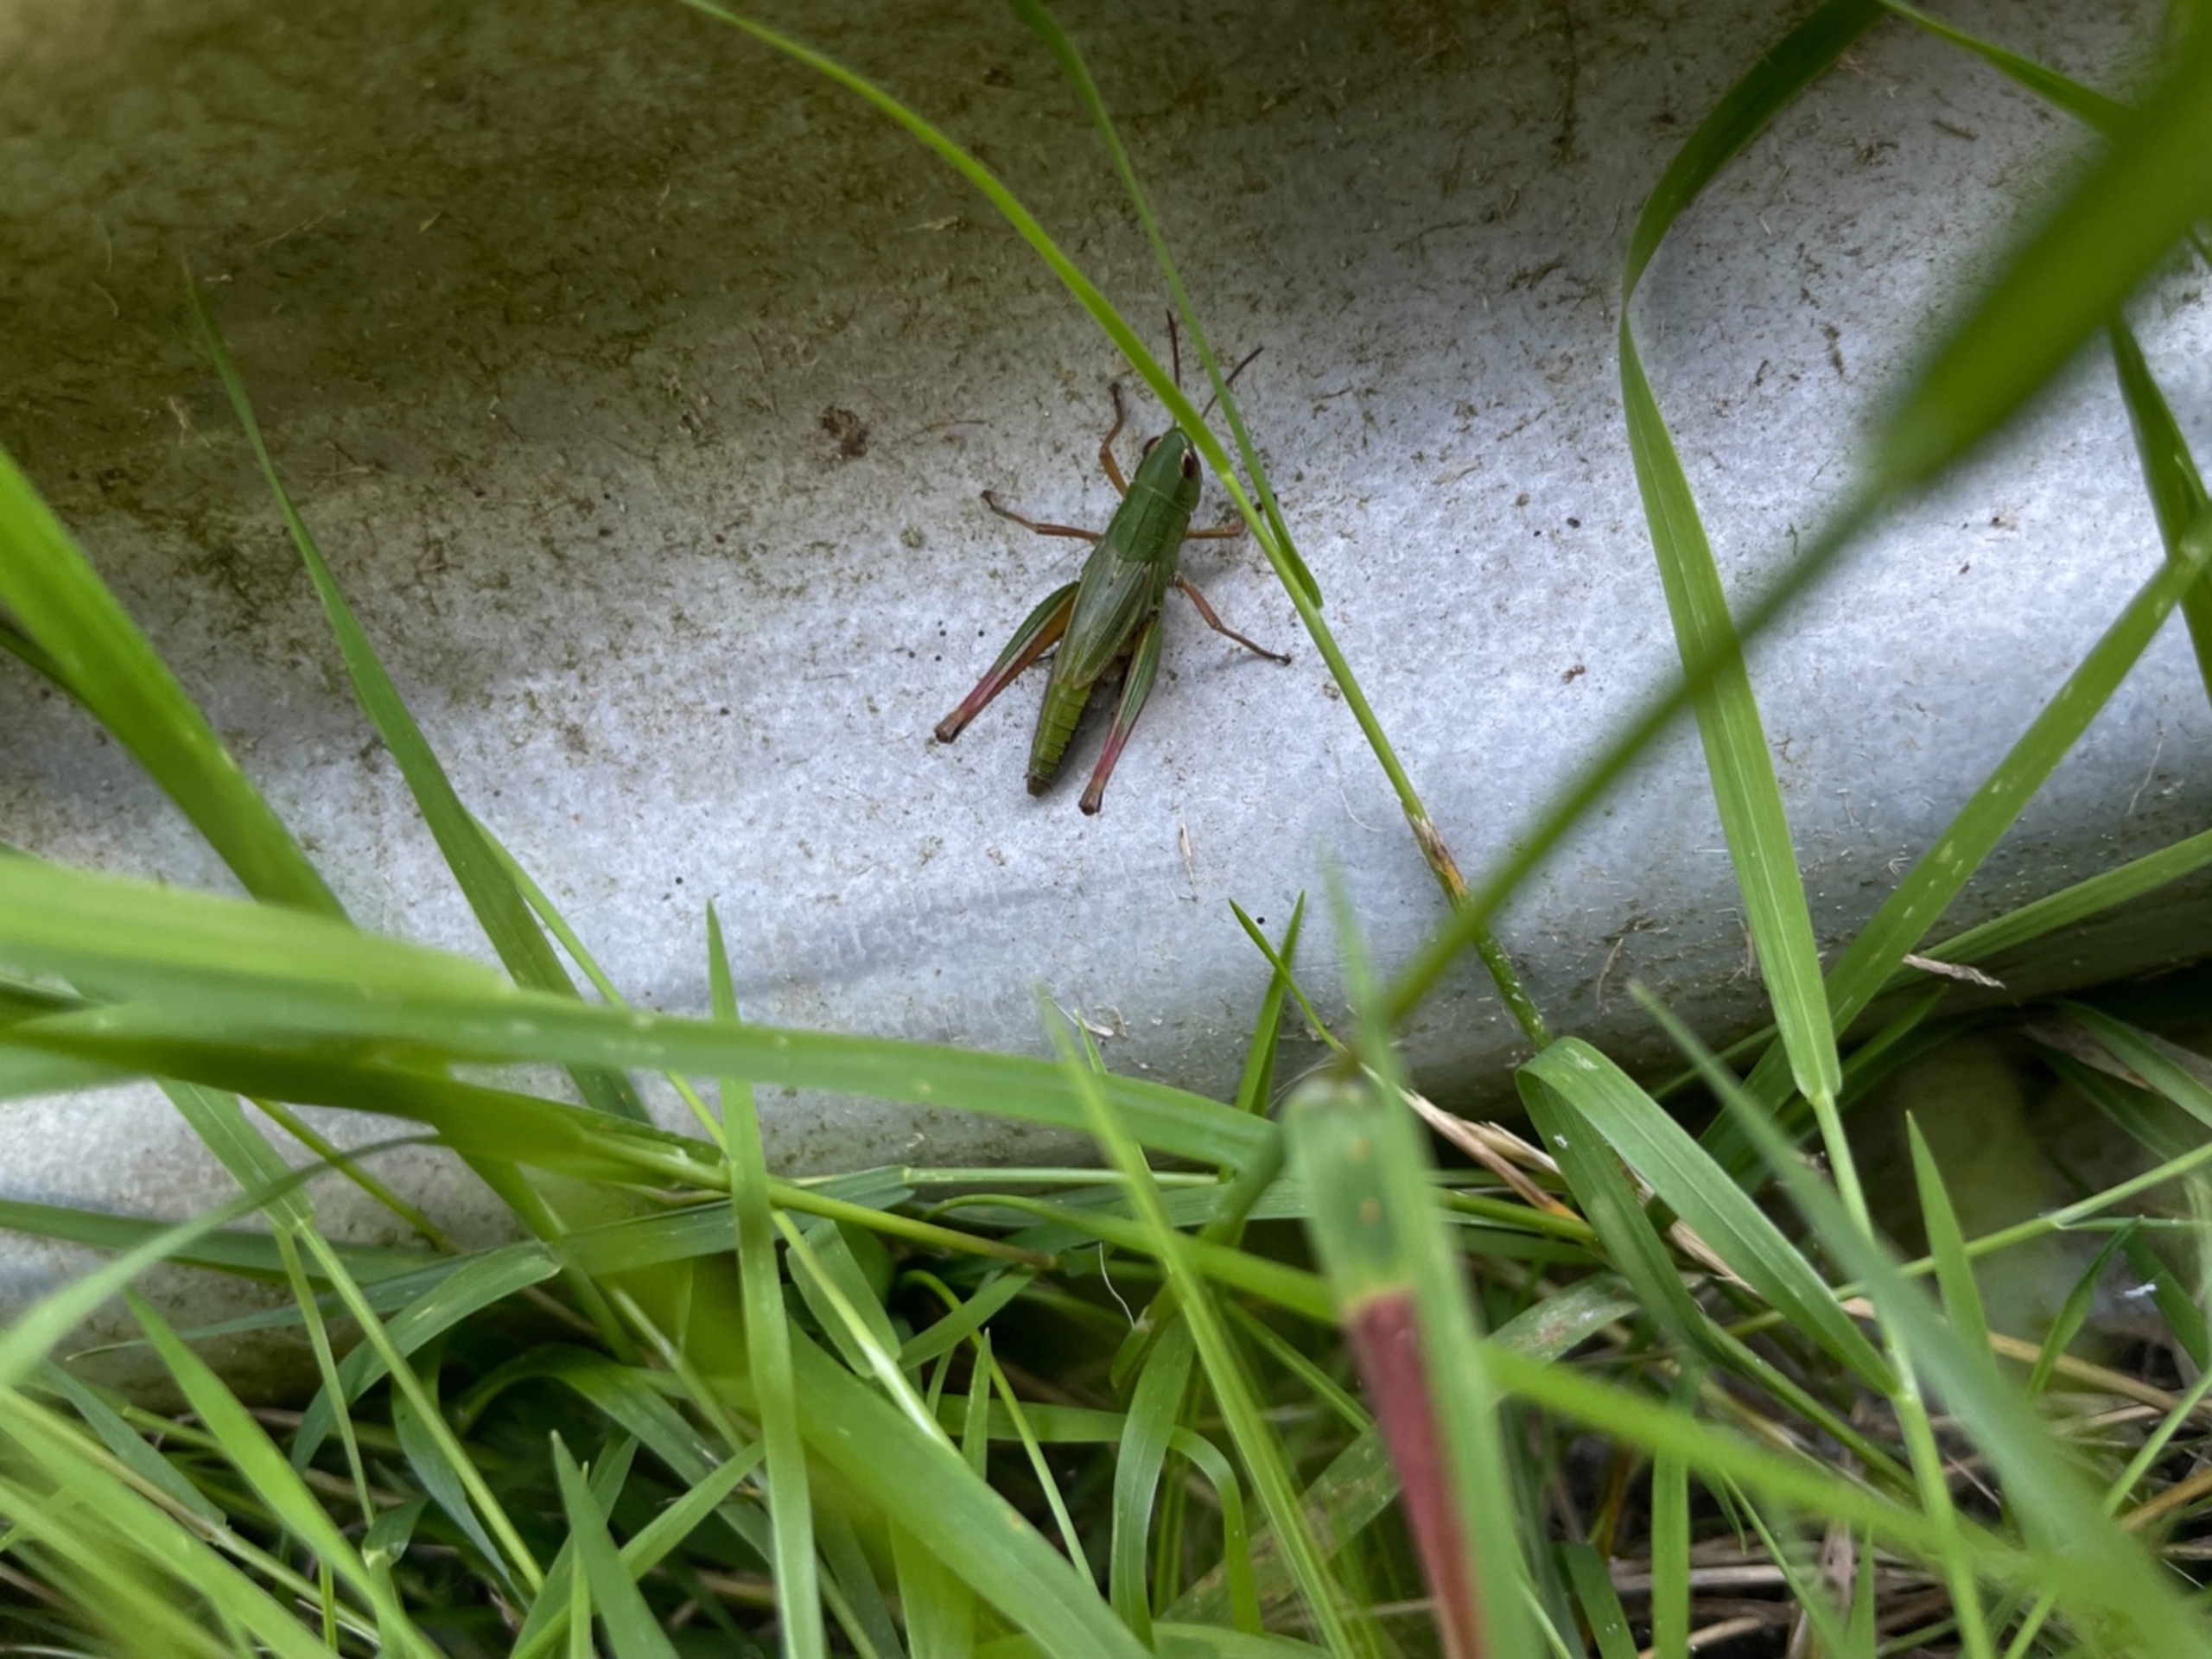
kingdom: Animalia
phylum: Arthropoda
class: Insecta
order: Orthoptera
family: Acrididae
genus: Pseudochorthippus
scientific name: Pseudochorthippus parallelus
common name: Enggræshoppe
